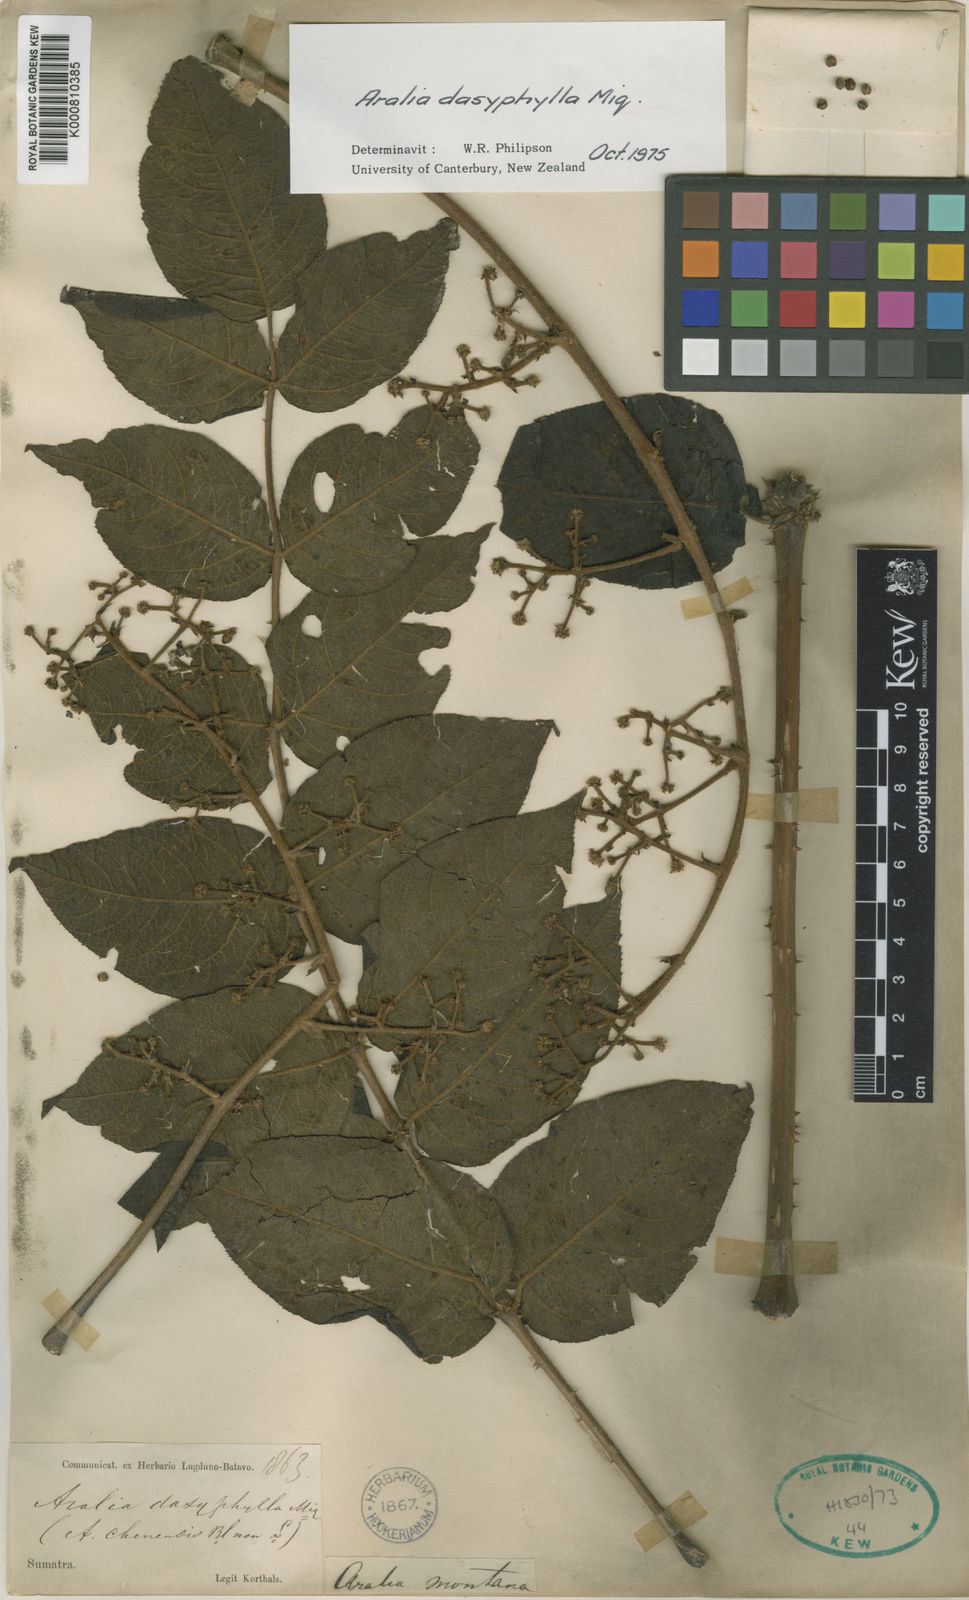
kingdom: Plantae
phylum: Tracheophyta
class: Magnoliopsida
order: Apiales
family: Araliaceae
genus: Aralia
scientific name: Aralia dasyphylla
